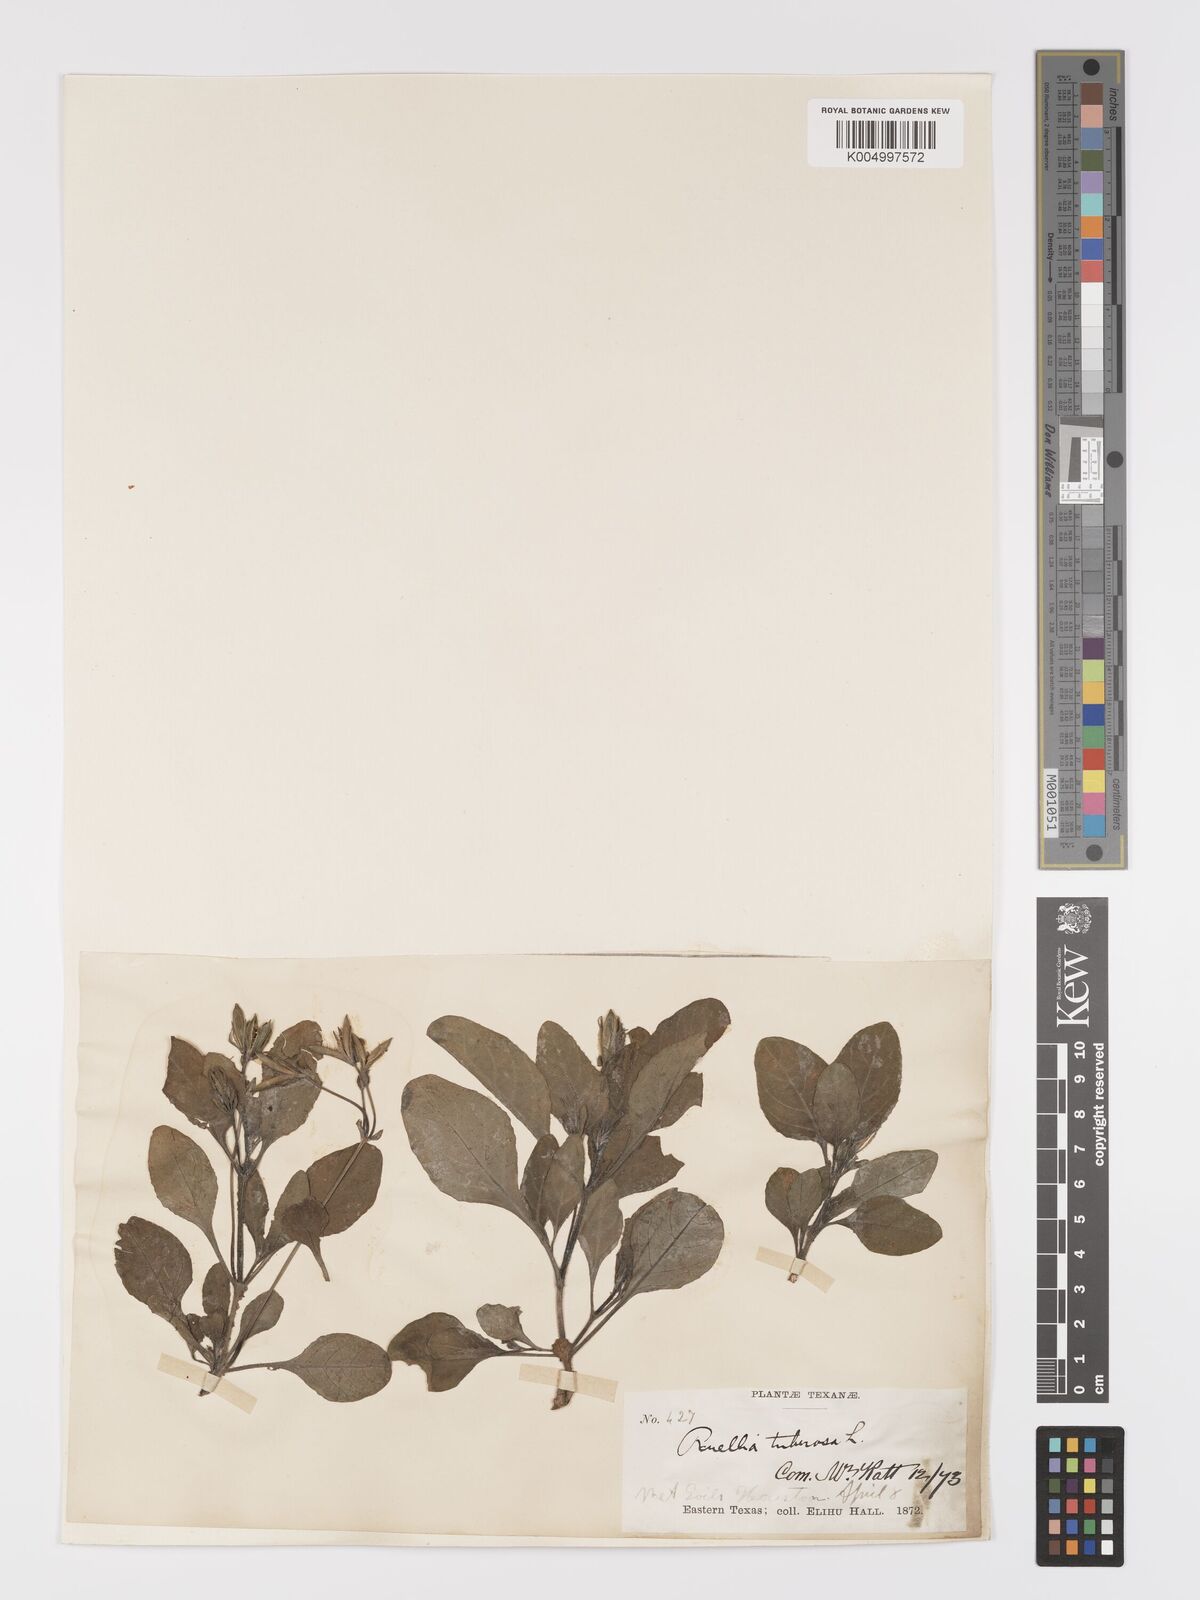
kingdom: Plantae
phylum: Tracheophyta
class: Magnoliopsida
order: Lamiales
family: Acanthaceae
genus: Ruellia
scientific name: Ruellia tuberosa
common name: Devil's bit
